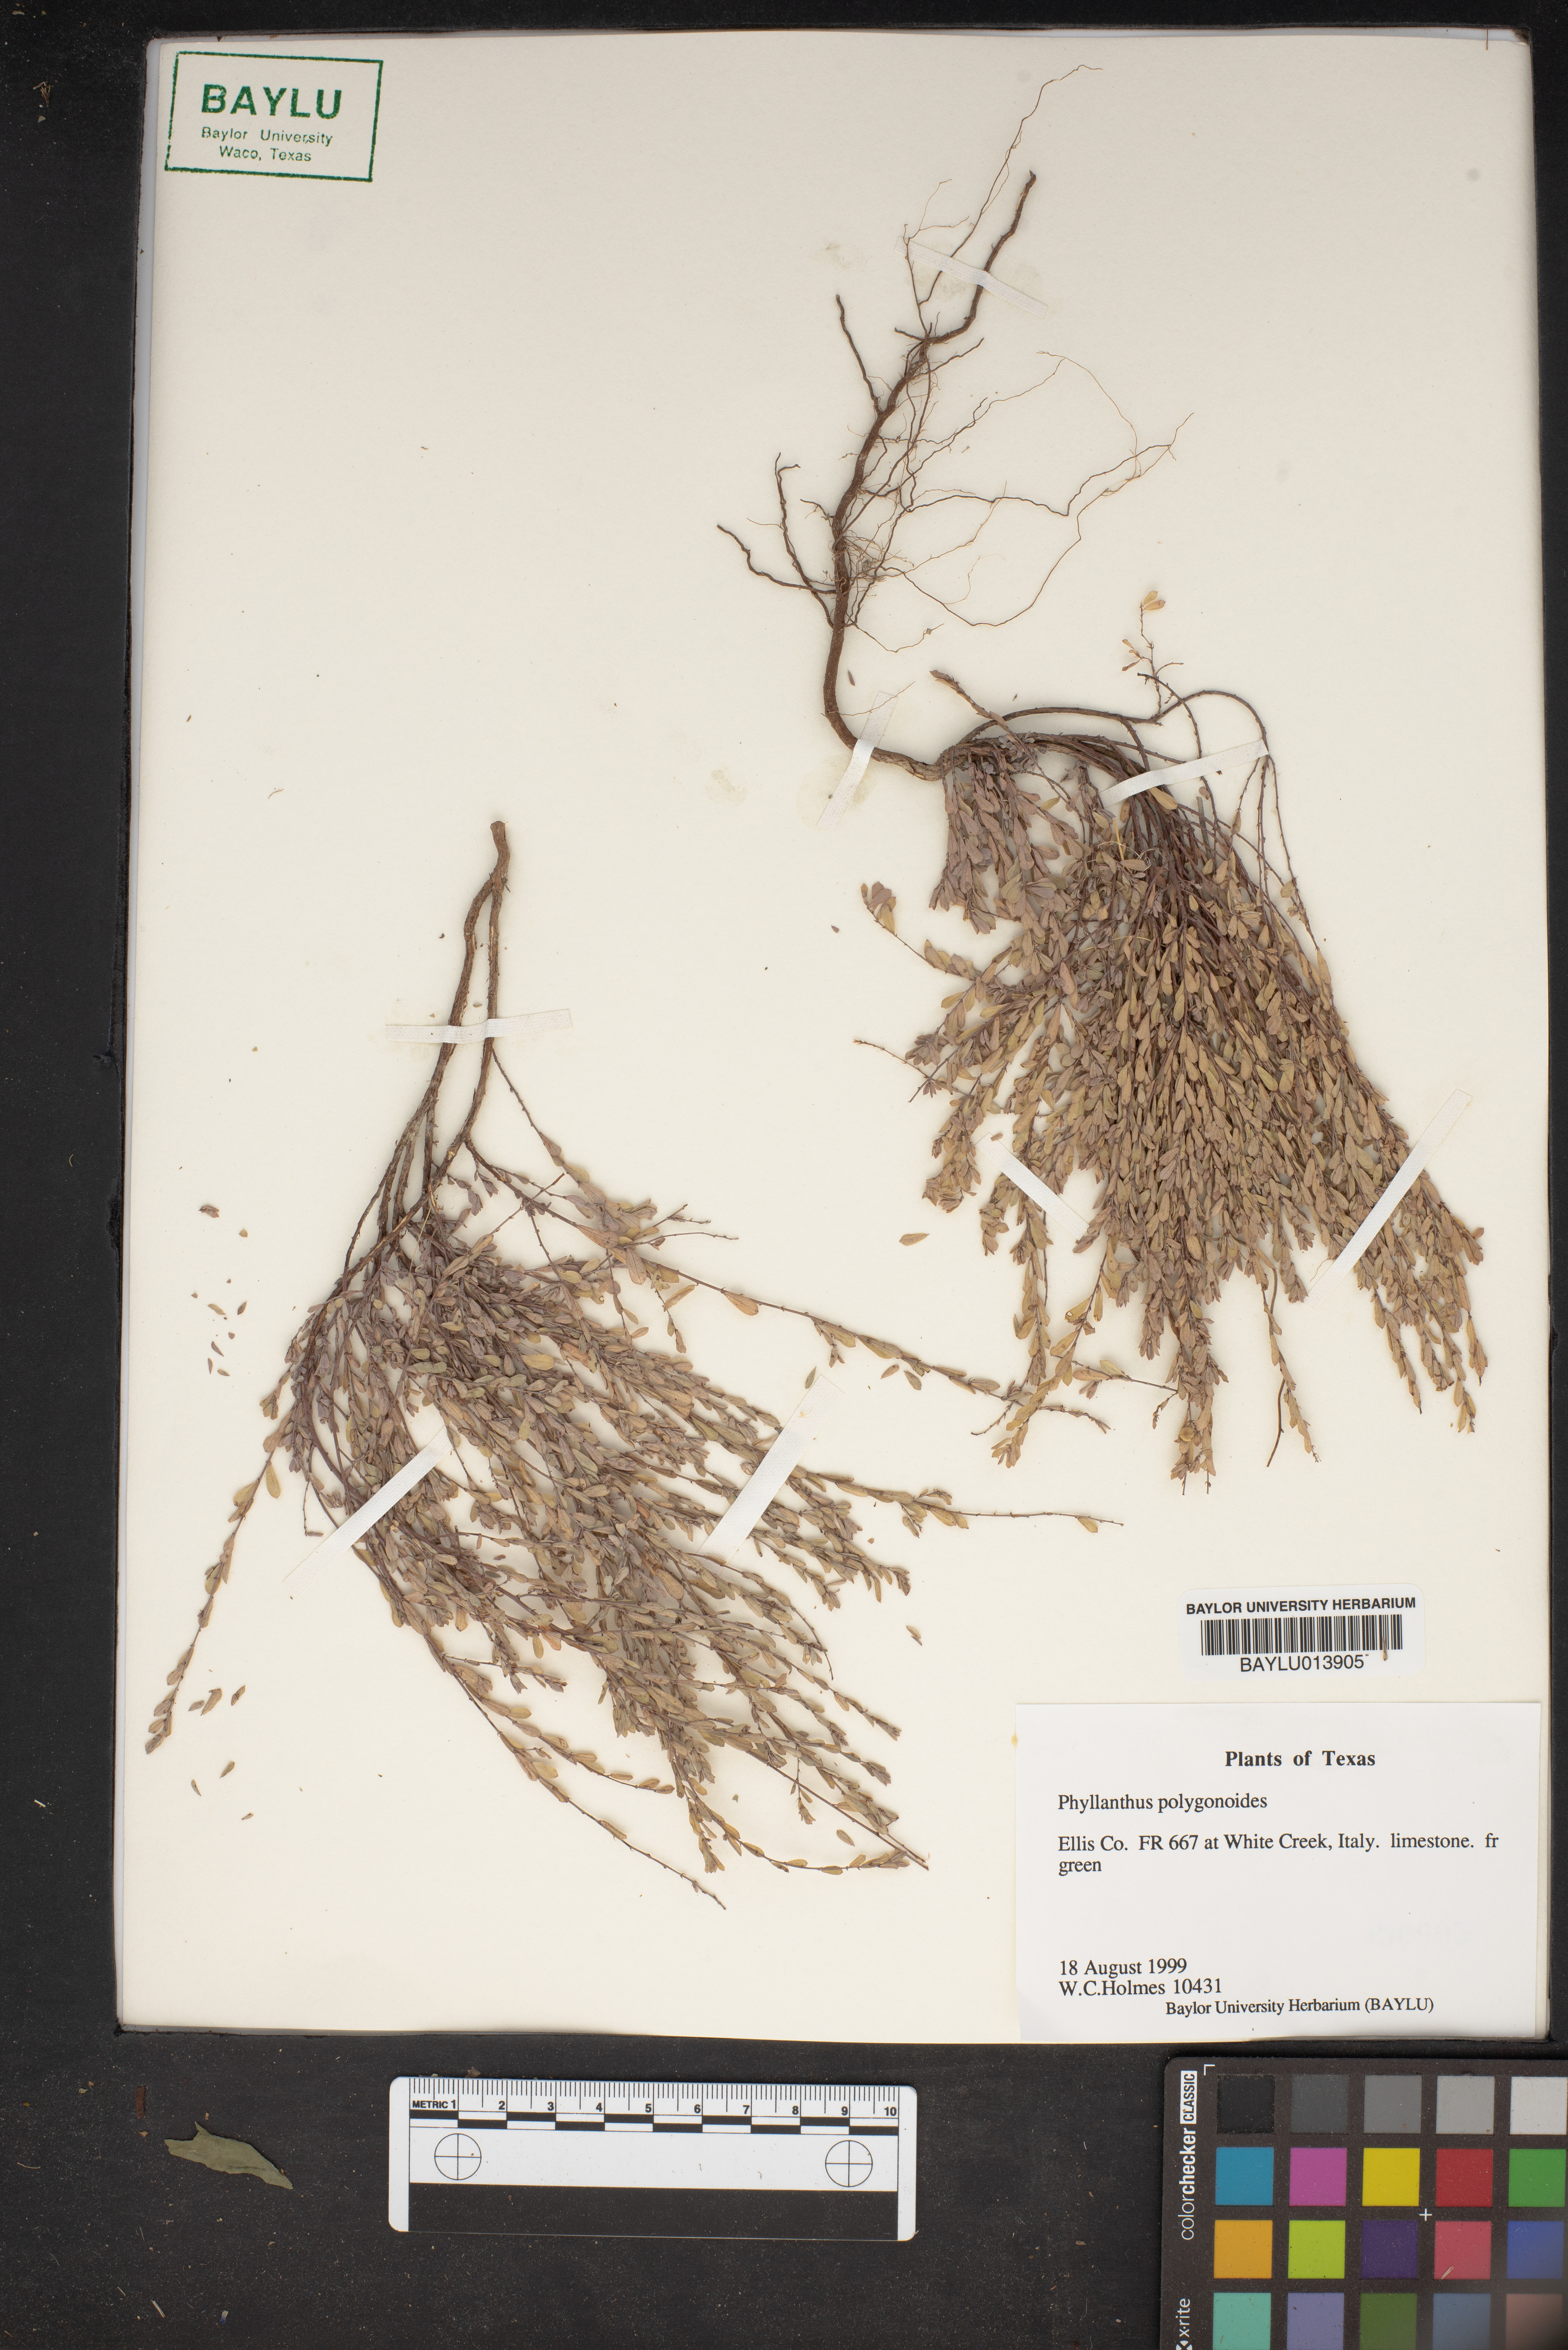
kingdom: Plantae
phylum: Tracheophyta
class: Magnoliopsida
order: Malpighiales
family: Phyllanthaceae
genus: Phyllanthus
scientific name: Phyllanthus polygonoides
